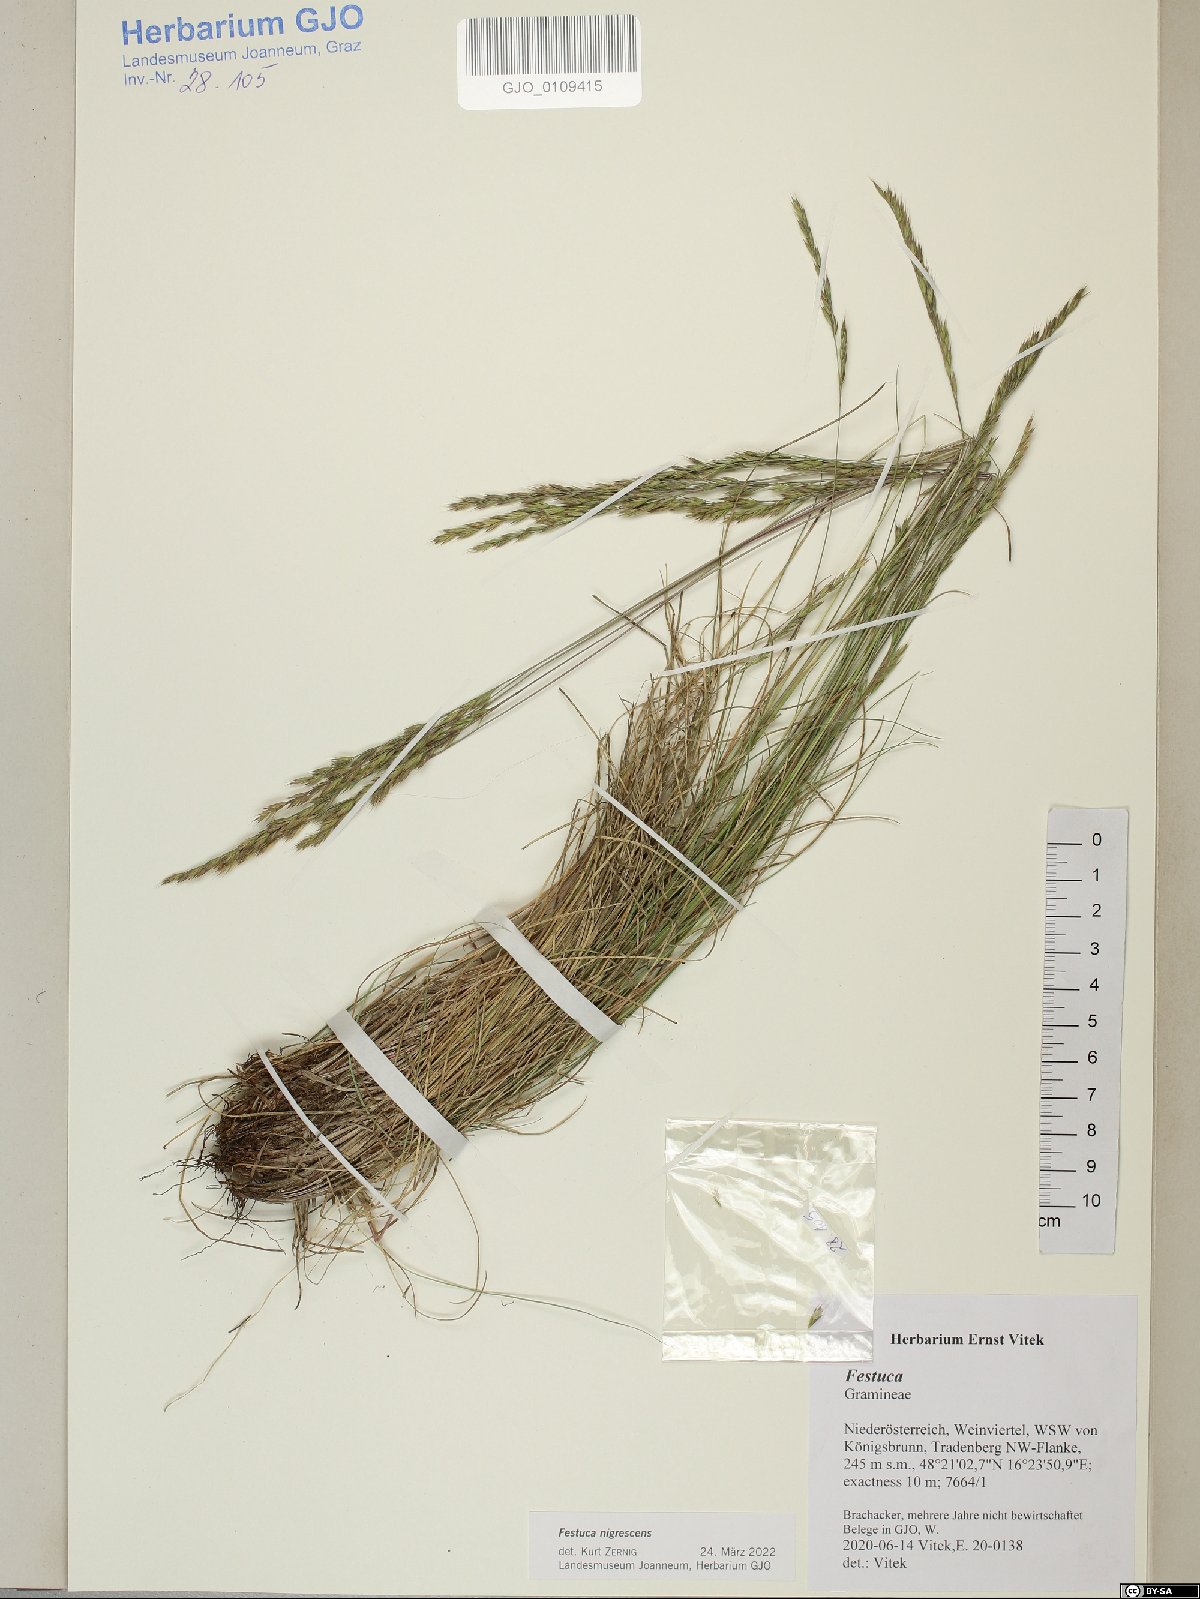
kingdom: Plantae
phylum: Tracheophyta
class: Liliopsida
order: Poales
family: Poaceae
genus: Festuca
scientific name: Festuca nigrescens
